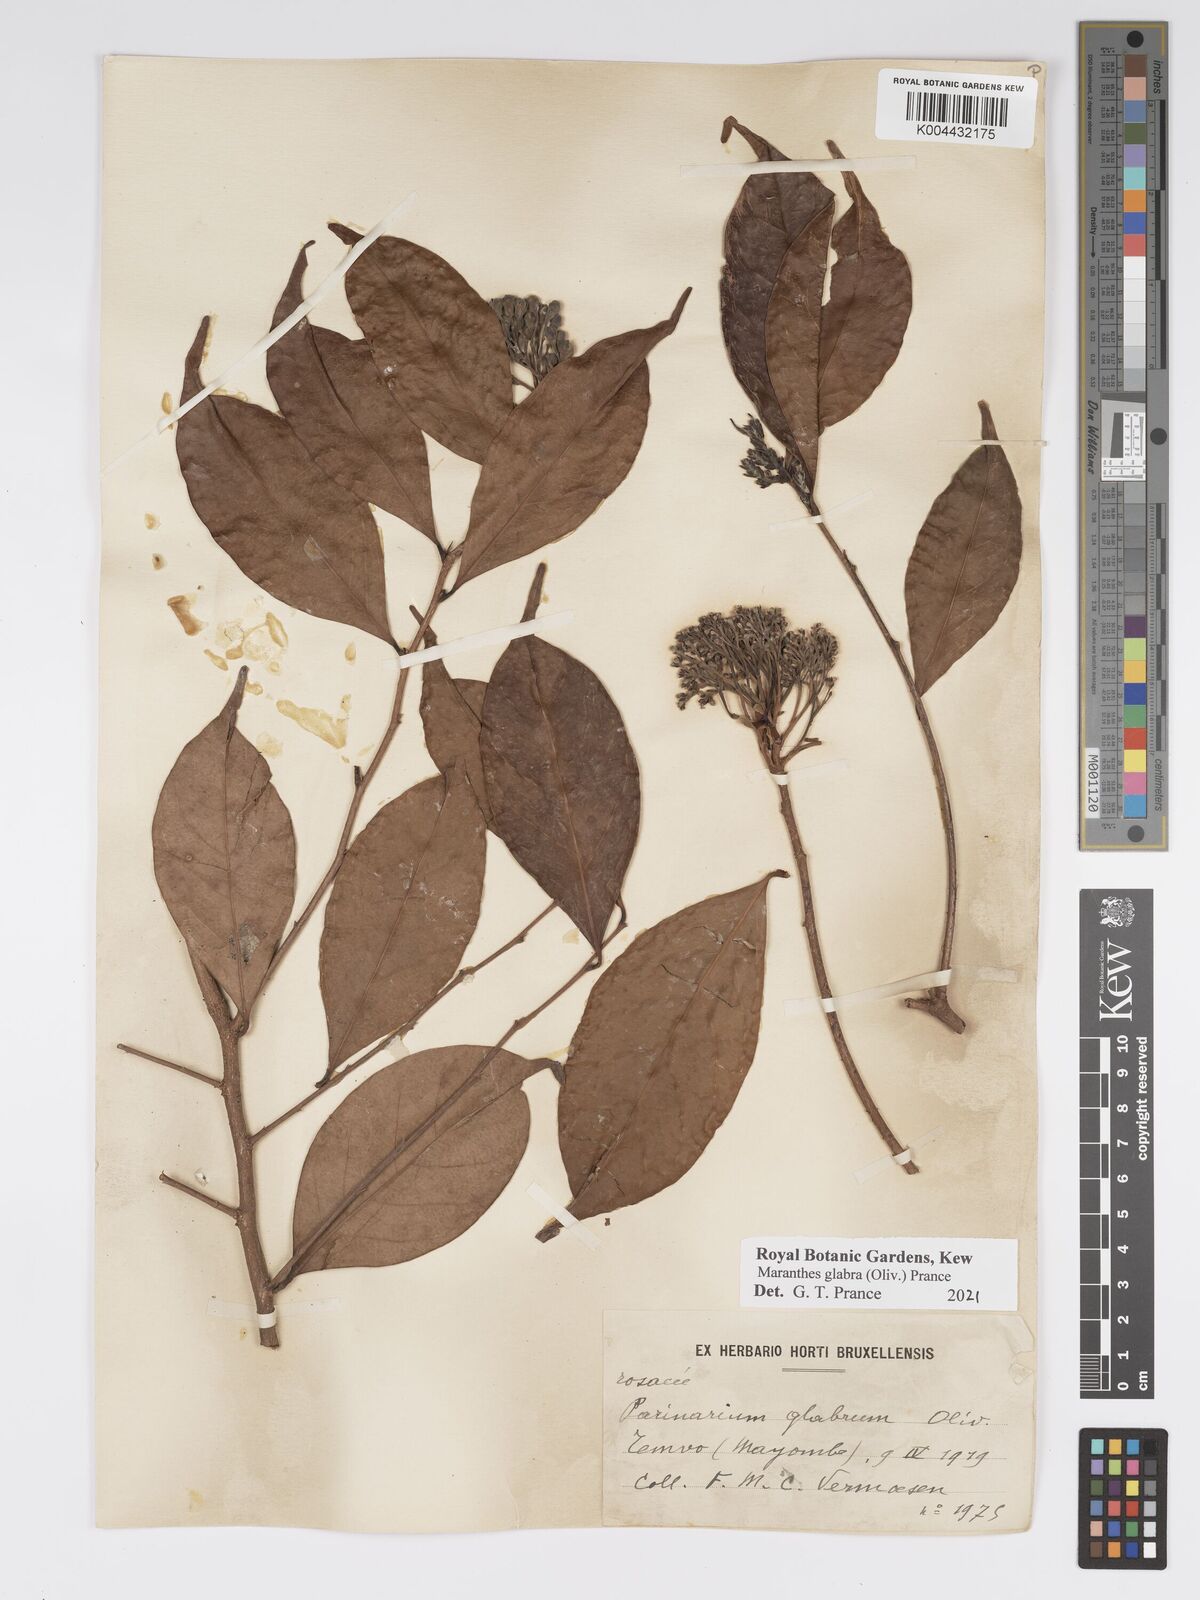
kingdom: Plantae
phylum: Tracheophyta
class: Magnoliopsida
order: Malpighiales
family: Chrysobalanaceae
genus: Maranthes
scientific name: Maranthes glabra
